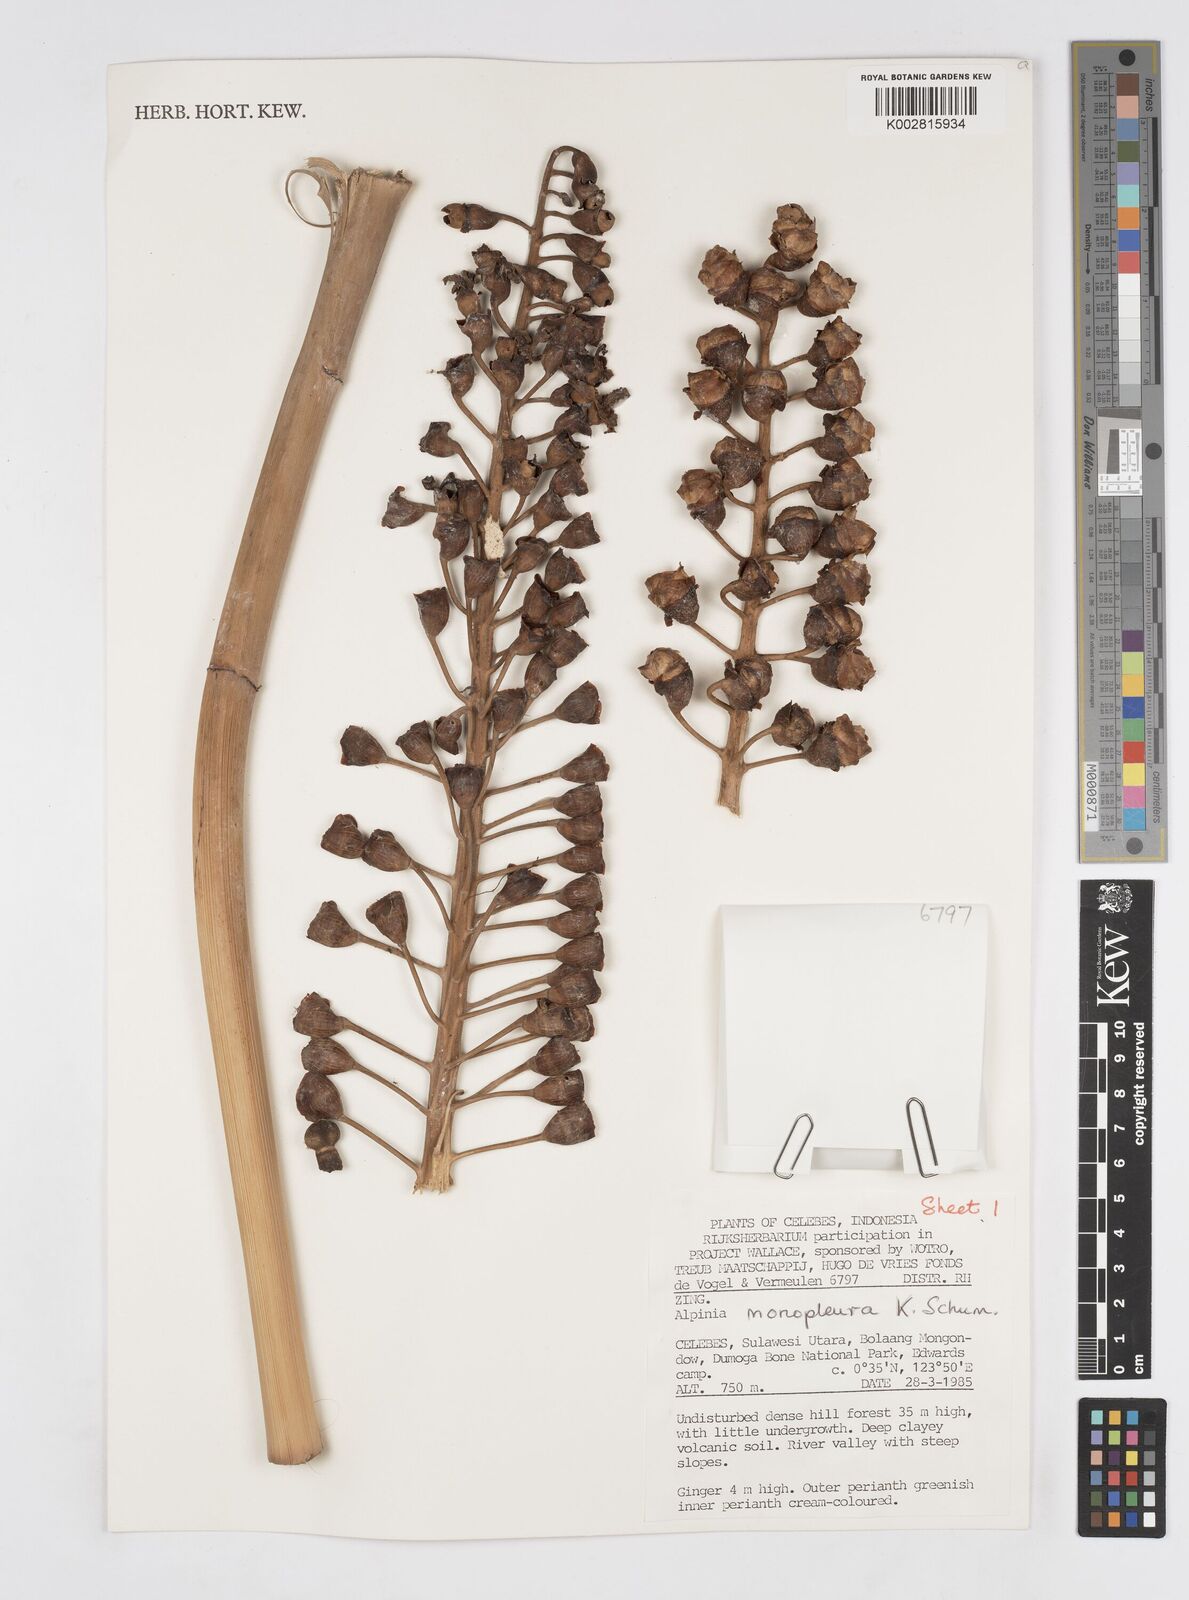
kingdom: Plantae
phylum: Tracheophyta
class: Liliopsida
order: Zingiberales
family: Zingiberaceae
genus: Alpinia
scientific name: Alpinia monopleura
